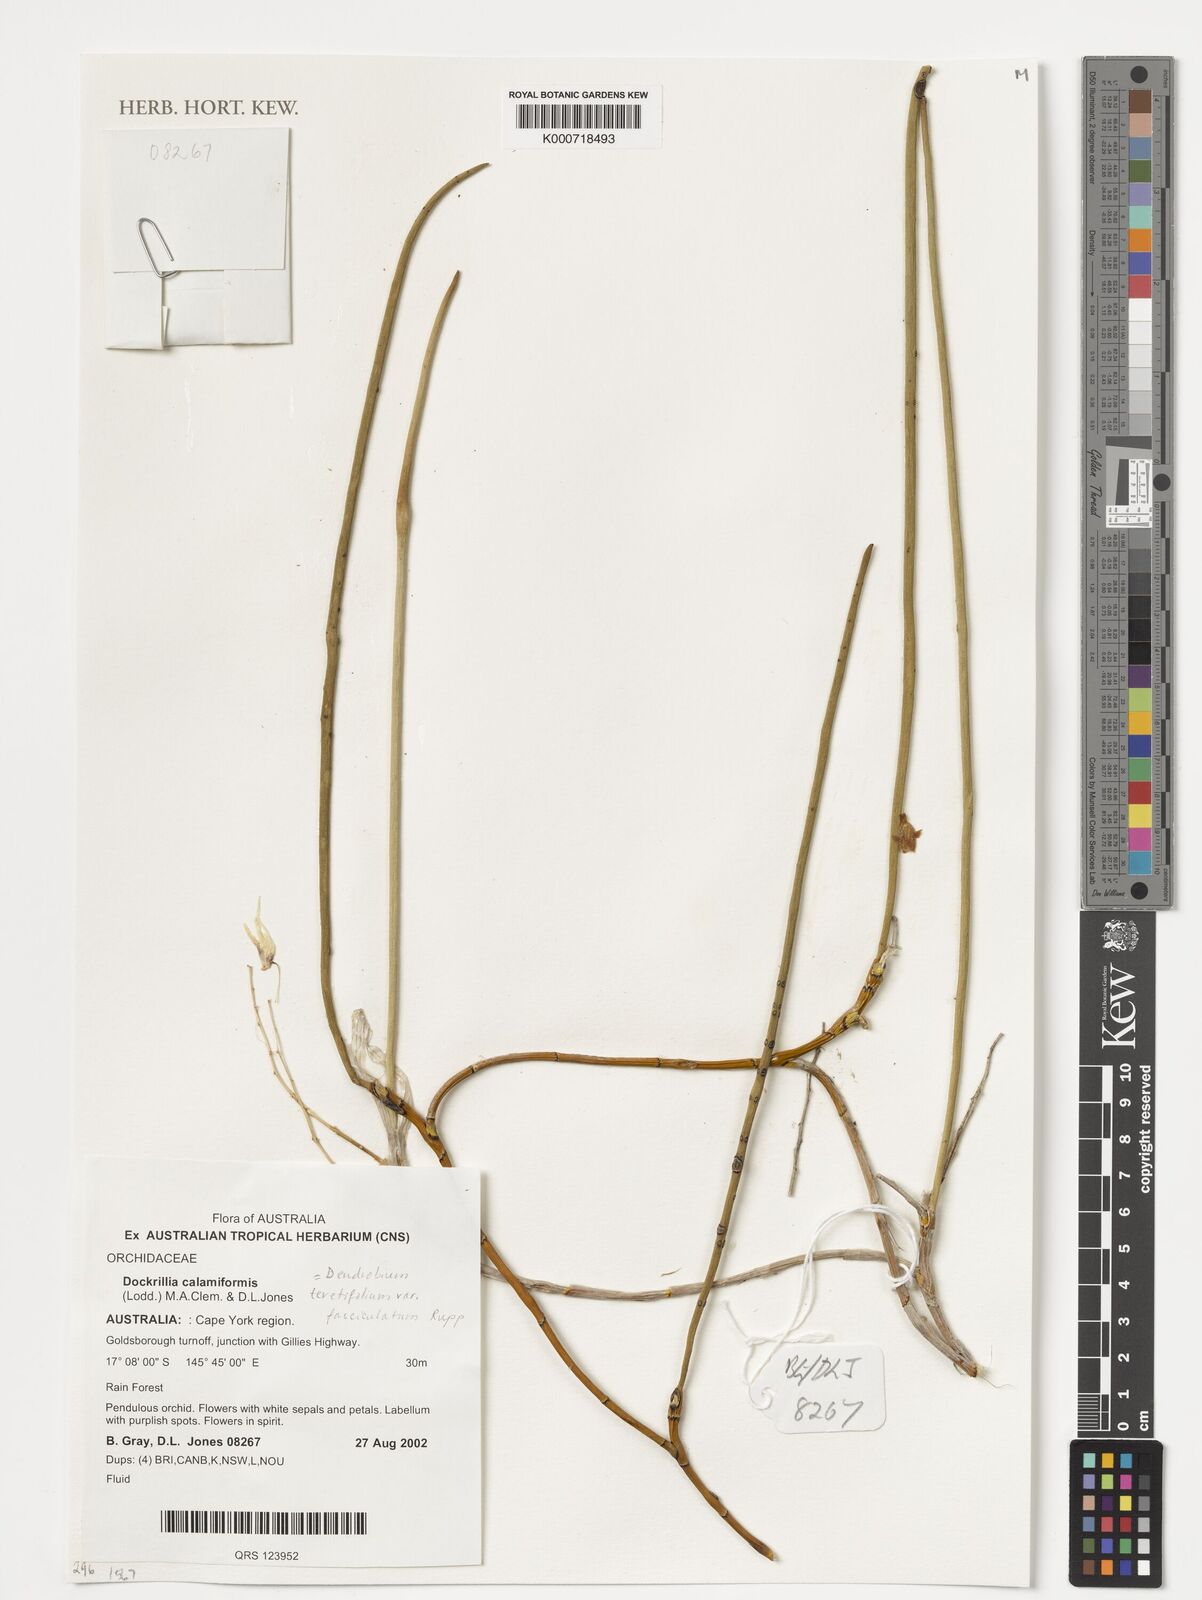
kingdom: Plantae
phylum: Tracheophyta
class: Liliopsida
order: Asparagales
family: Orchidaceae
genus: Dendrobium
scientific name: Dendrobium teretifolium
